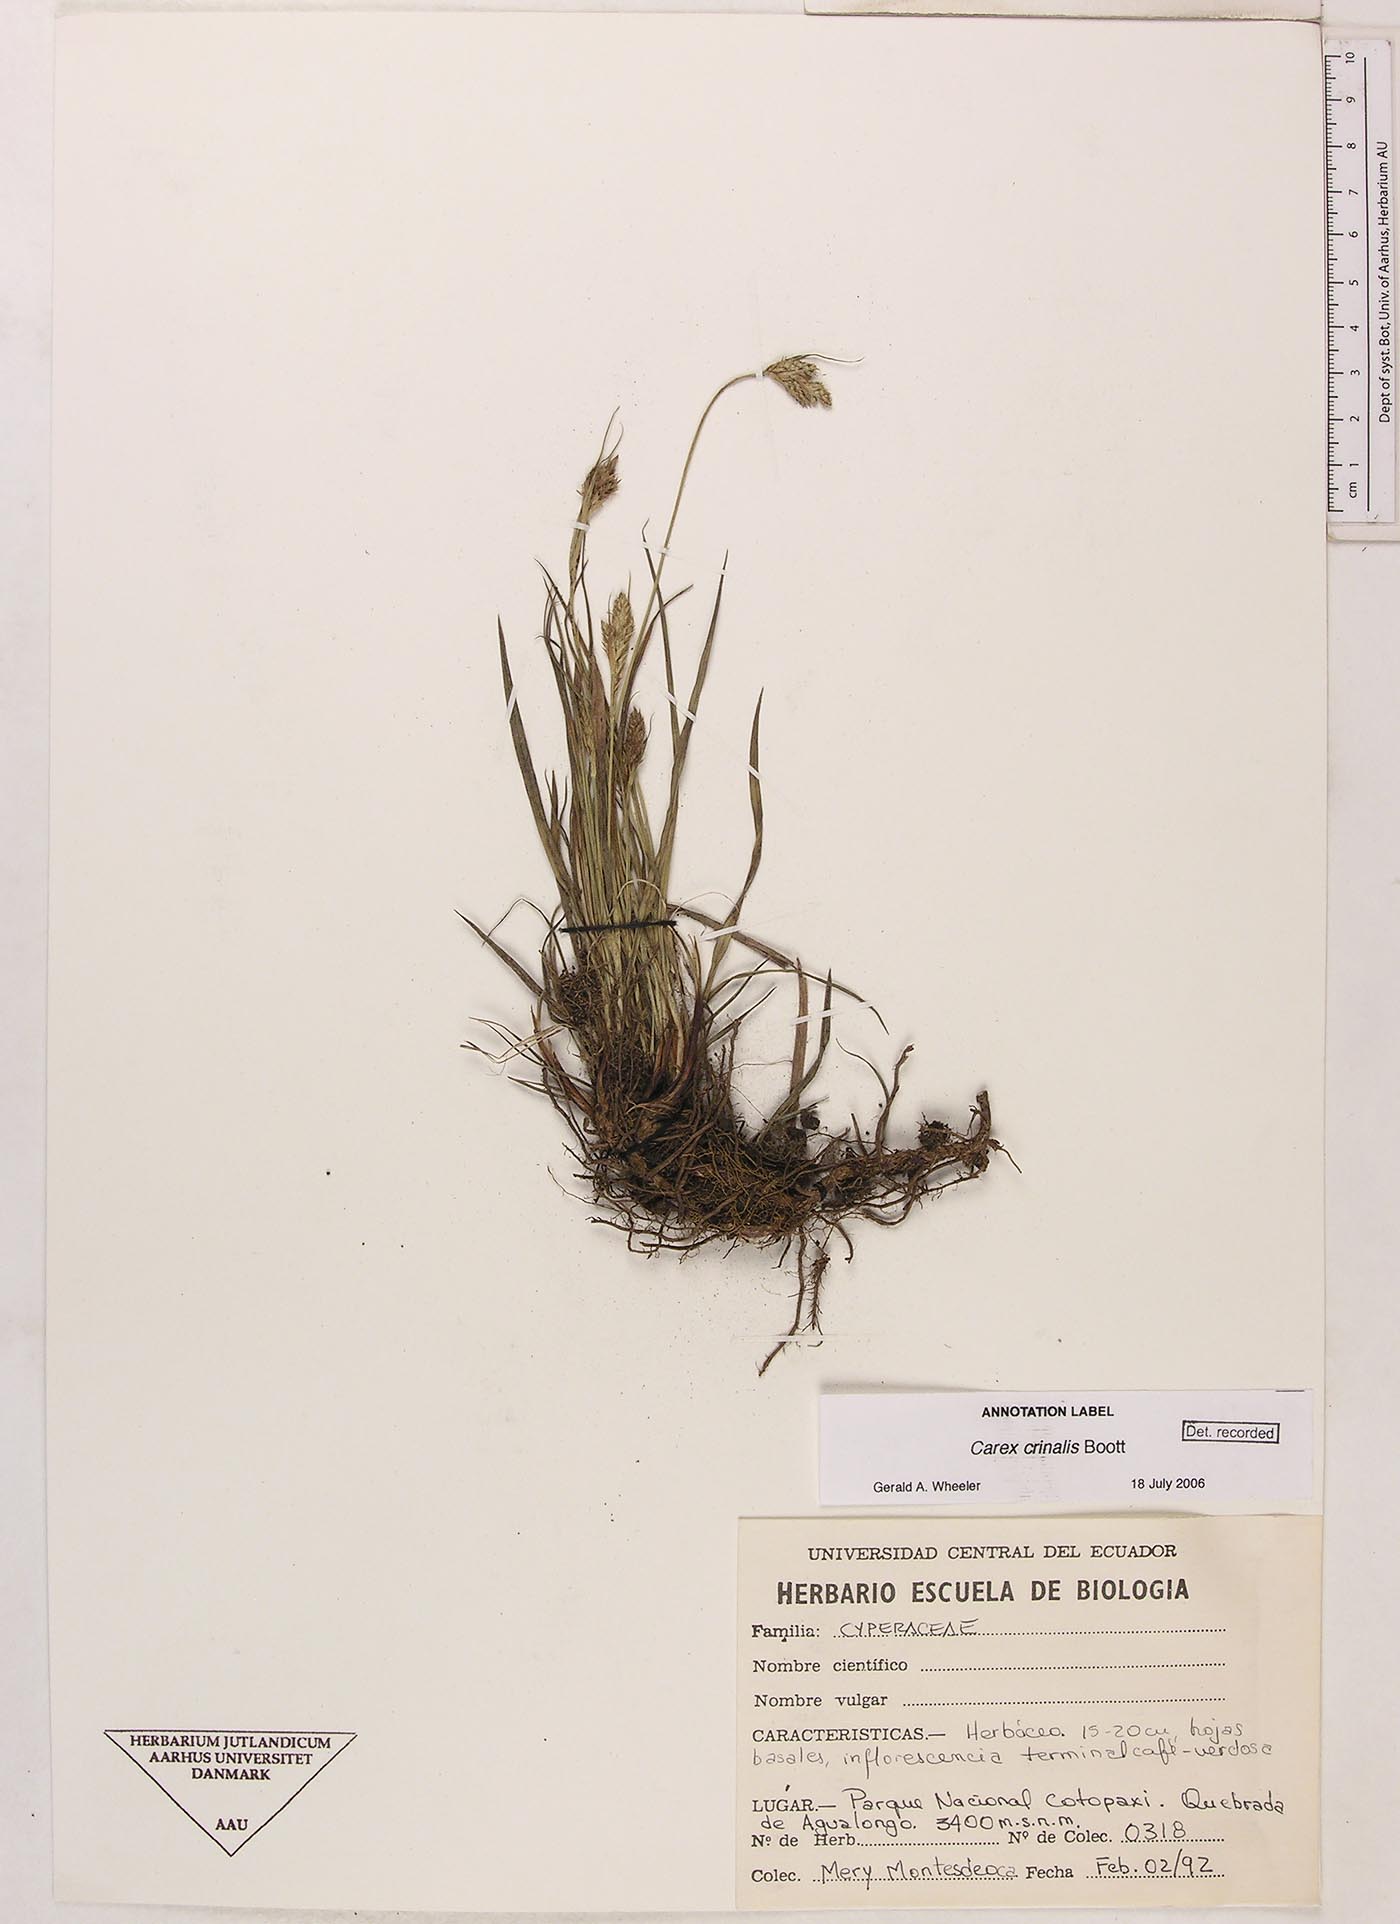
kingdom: Plantae
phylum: Tracheophyta
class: Liliopsida
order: Poales
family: Cyperaceae
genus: Carex
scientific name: Carex crinalis
